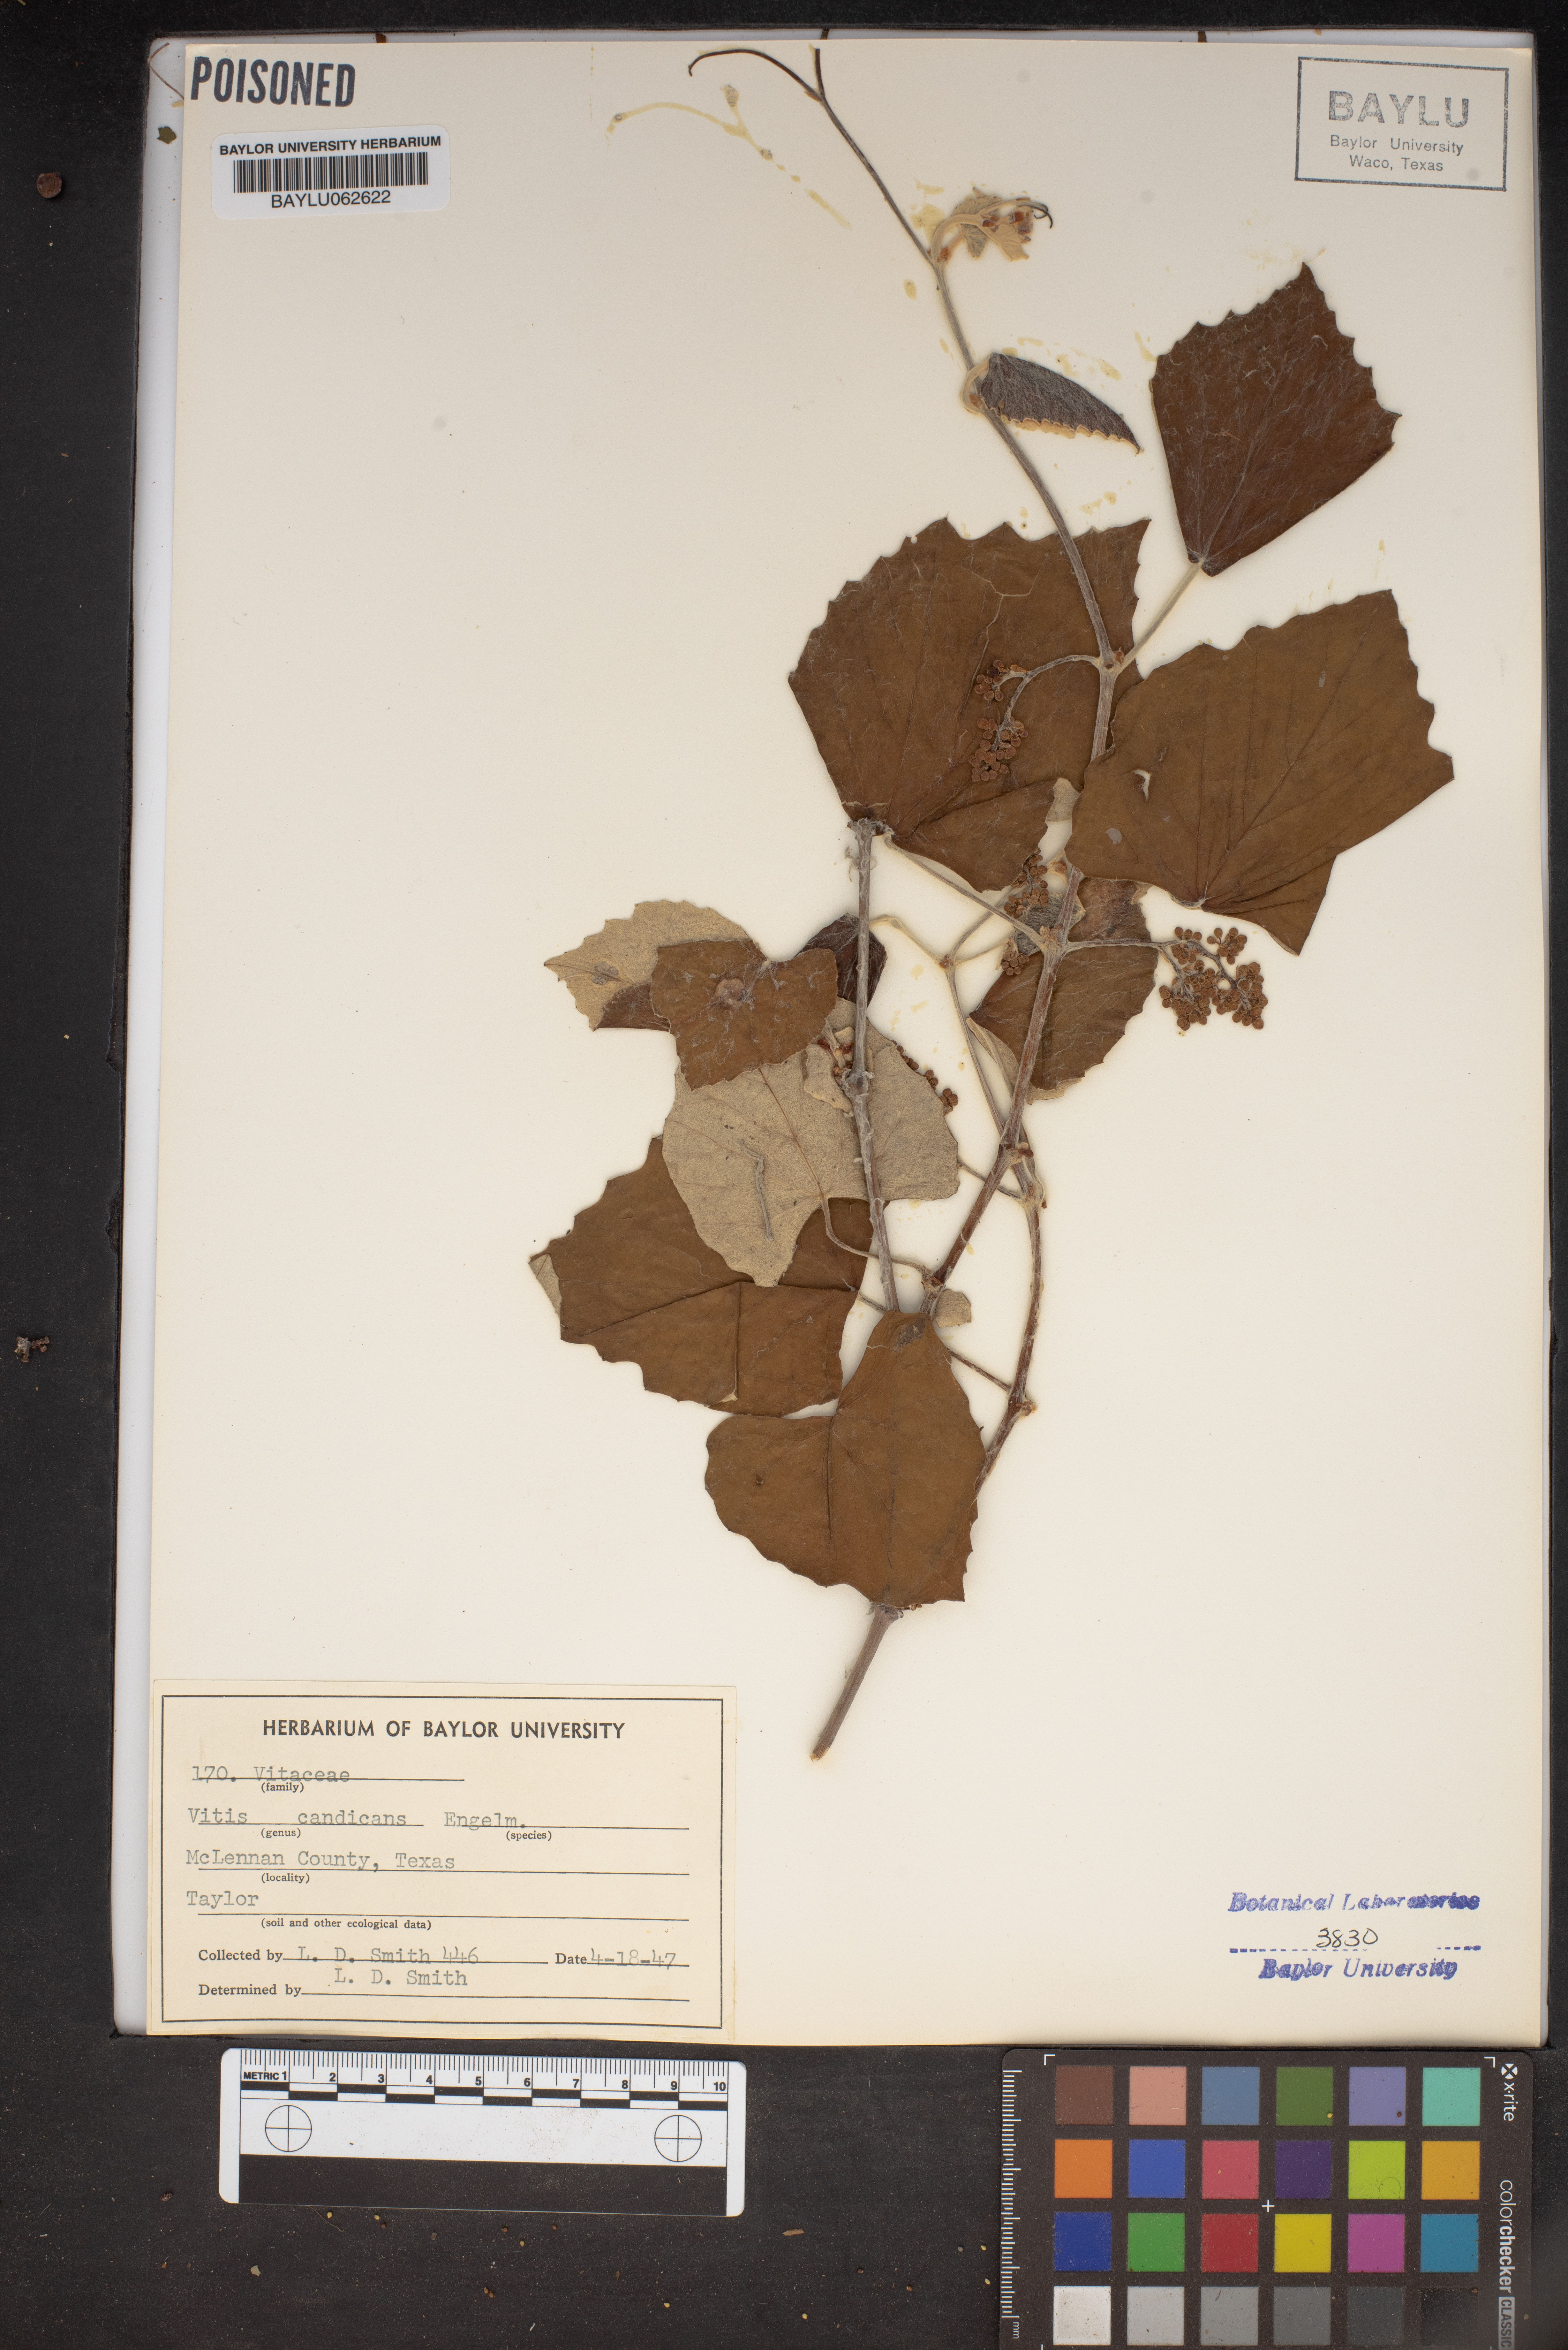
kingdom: Plantae
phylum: Tracheophyta
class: Magnoliopsida
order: Vitales
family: Vitaceae
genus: Vitis
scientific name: Vitis mustangensis
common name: Mustang grape
